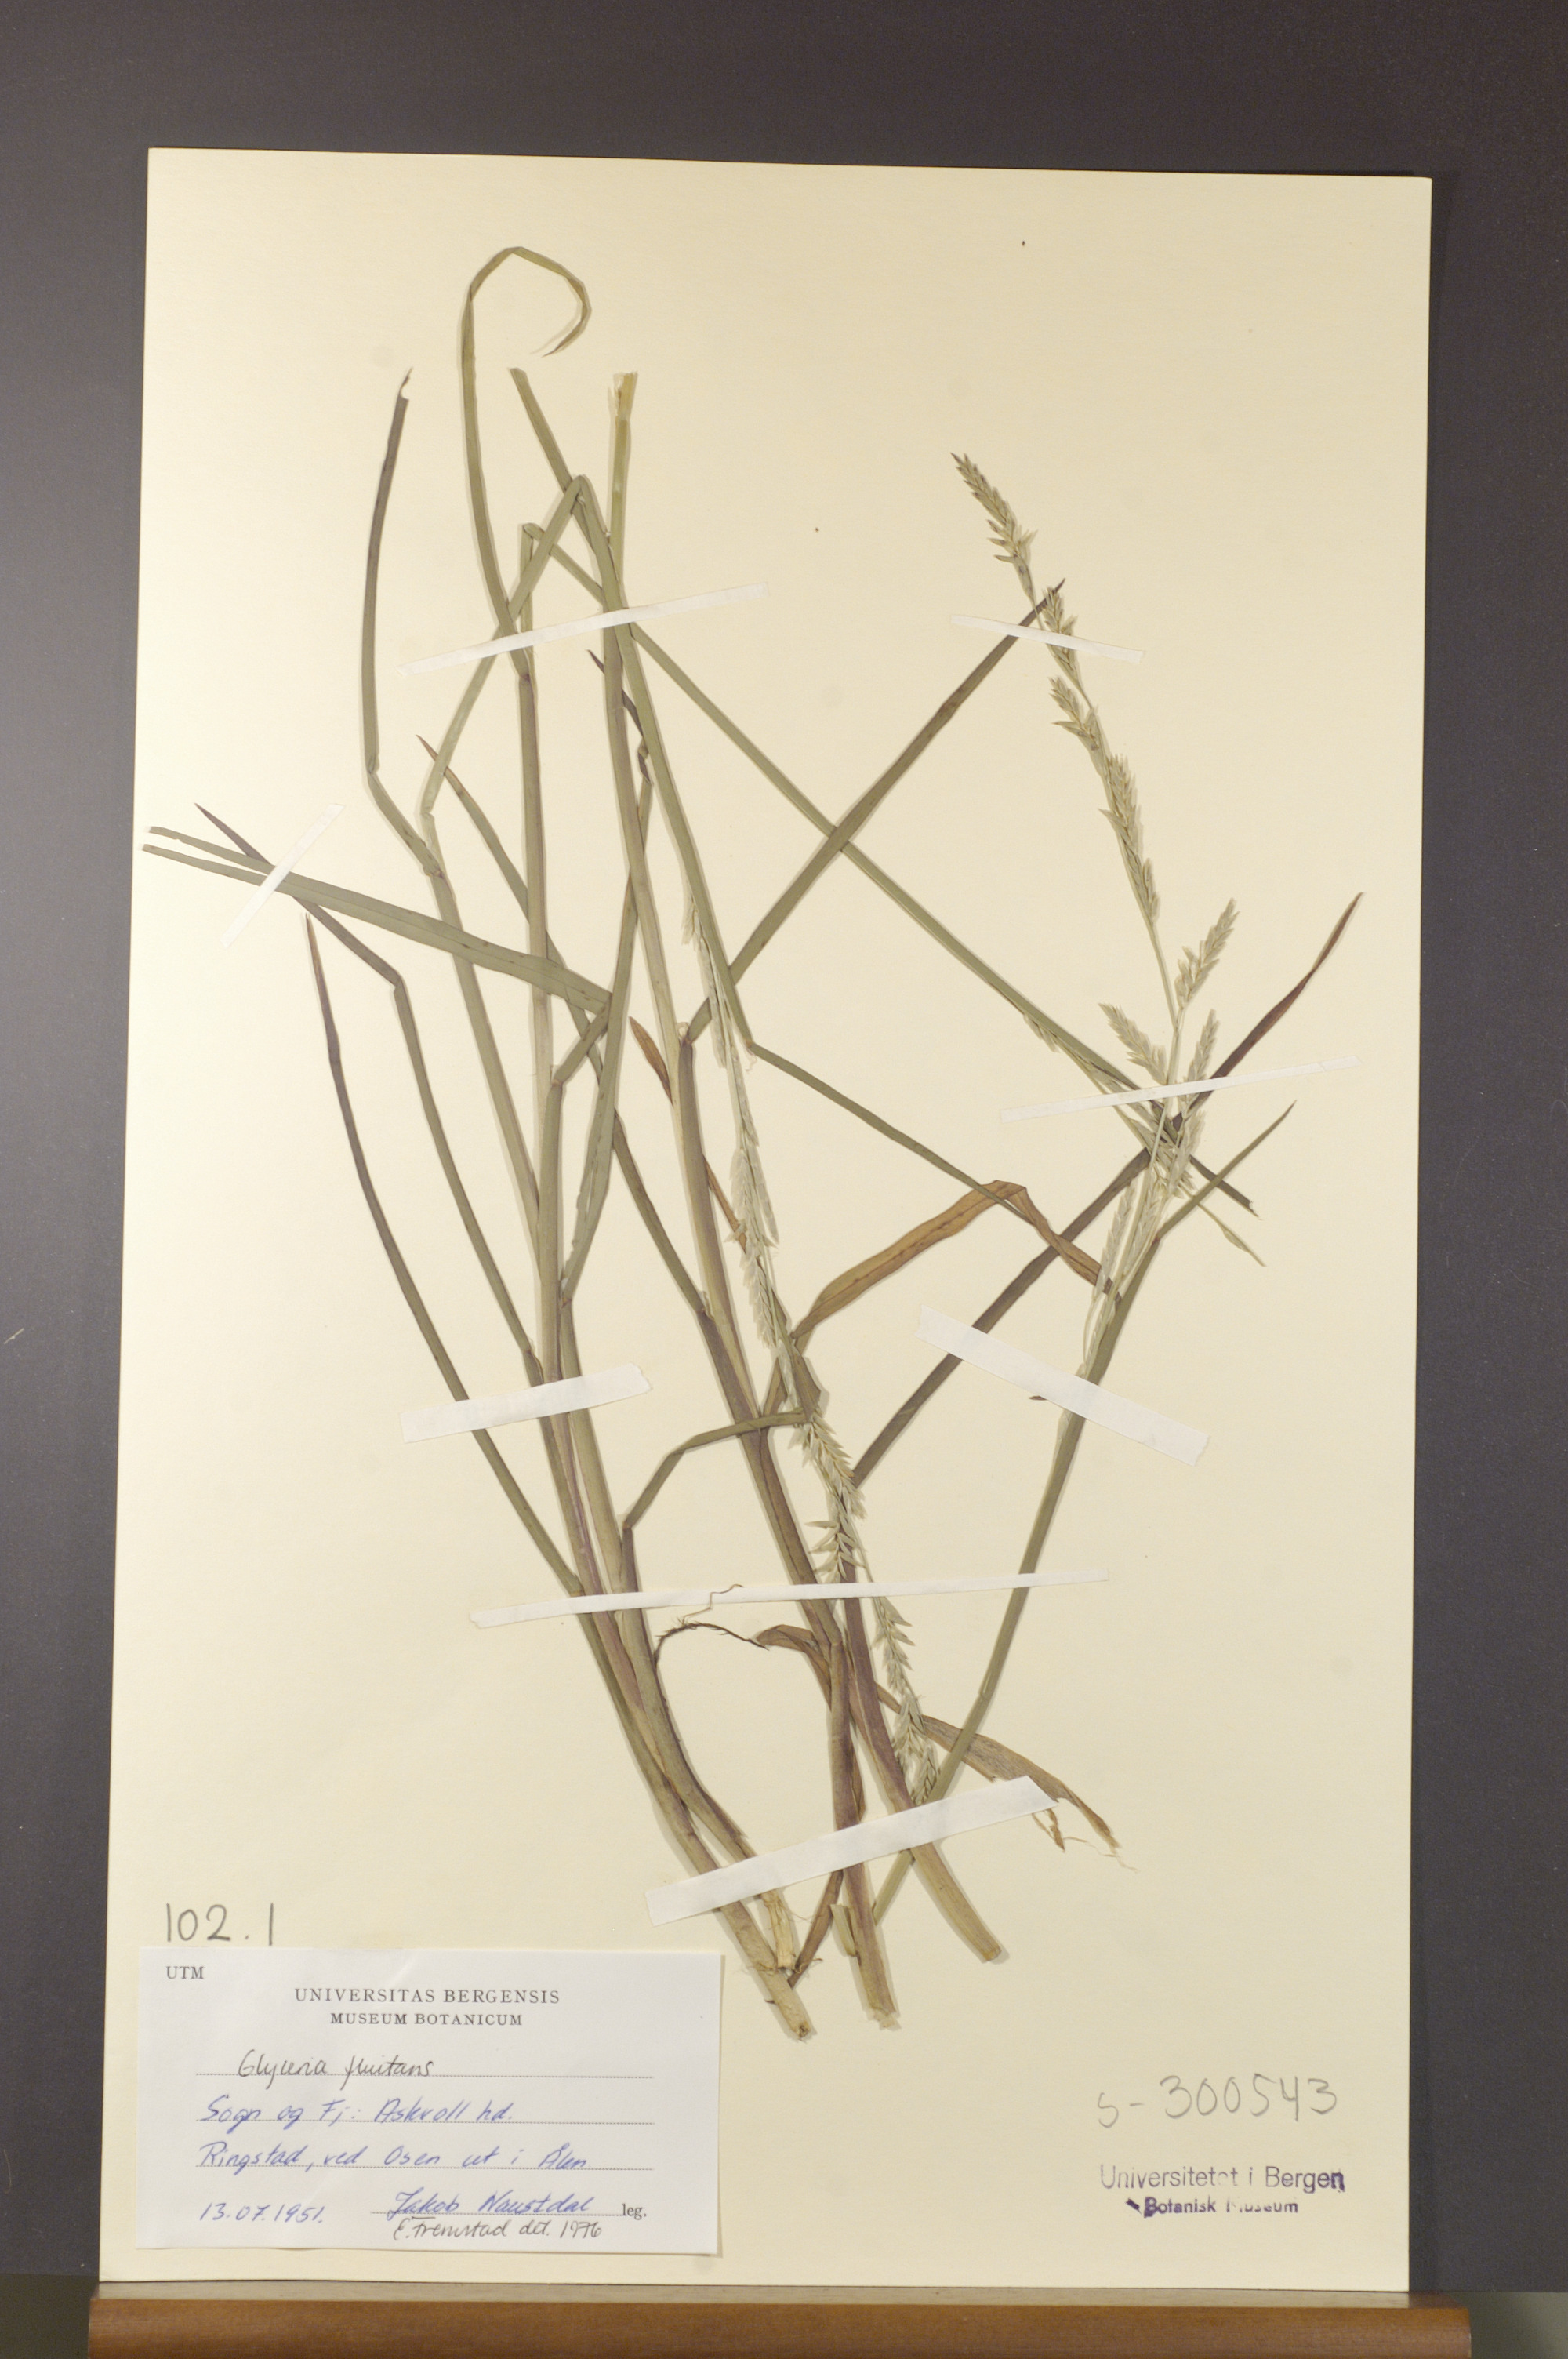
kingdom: Plantae
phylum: Tracheophyta
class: Liliopsida
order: Poales
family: Poaceae
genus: Glyceria
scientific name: Glyceria fluitans
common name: Floating sweet-grass
